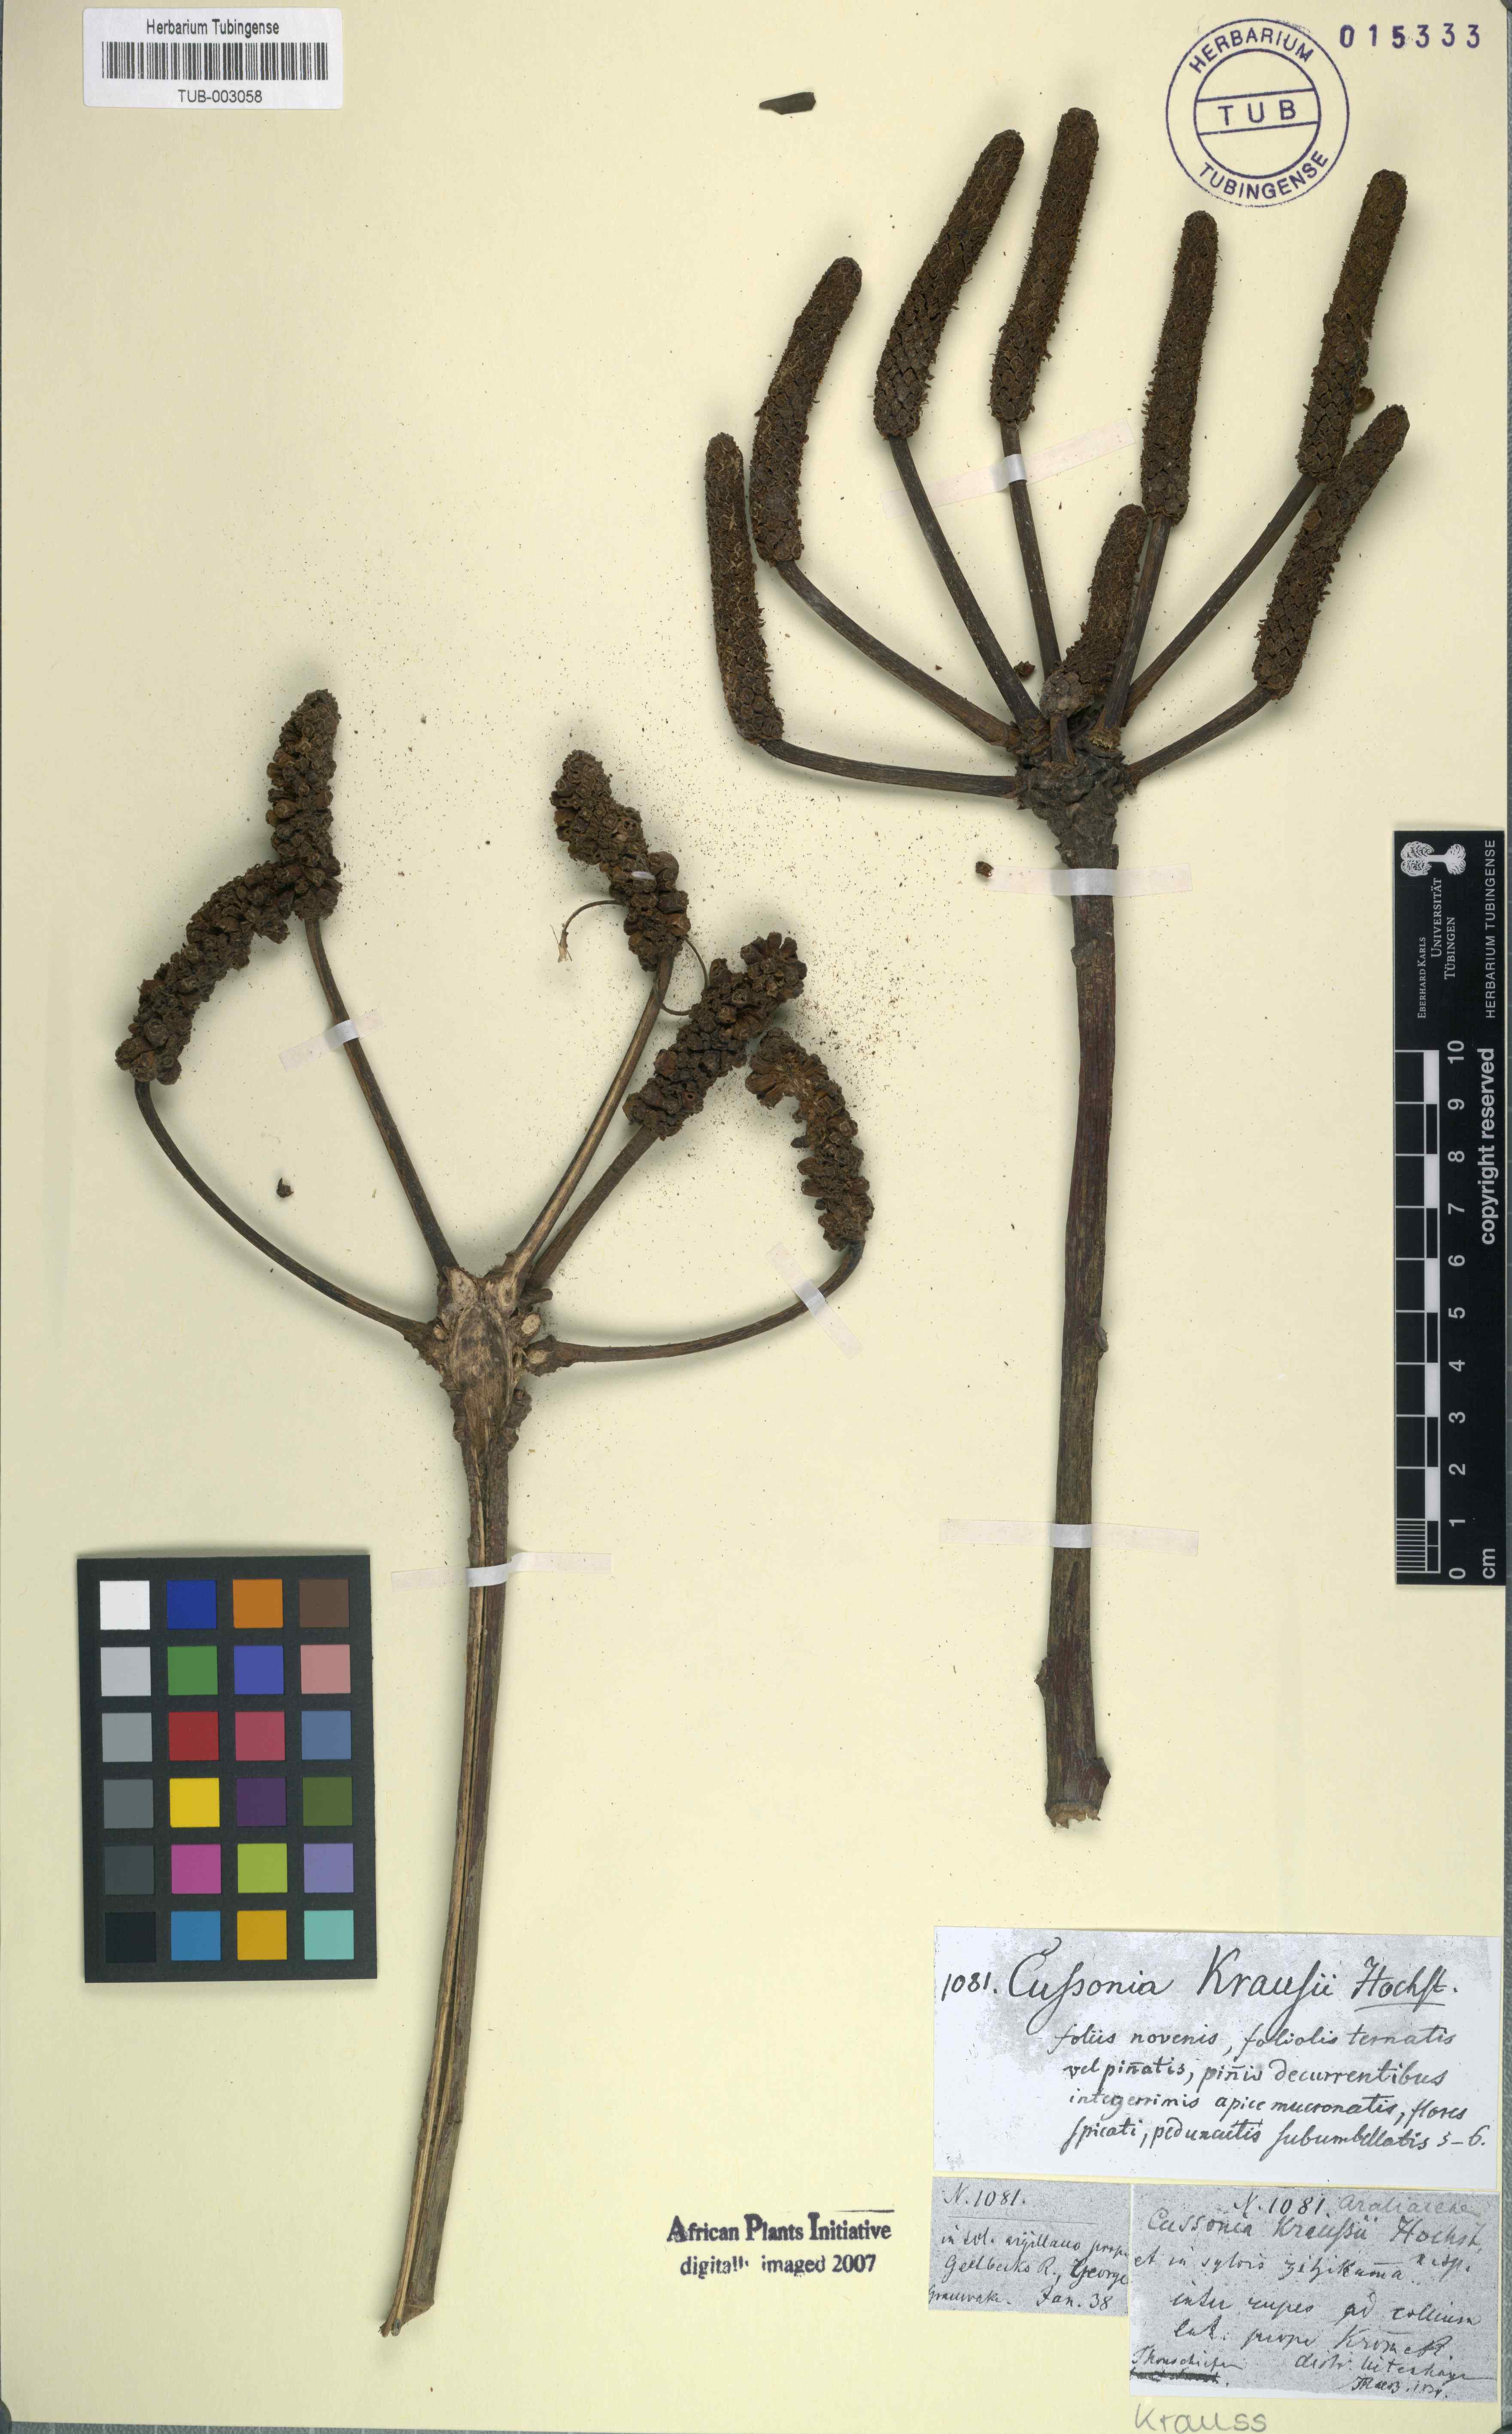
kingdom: Plantae
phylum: Tracheophyta
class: Magnoliopsida
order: Apiales
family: Araliaceae
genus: Cussonia
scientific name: Cussonia spicata
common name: Common cabbagetree
